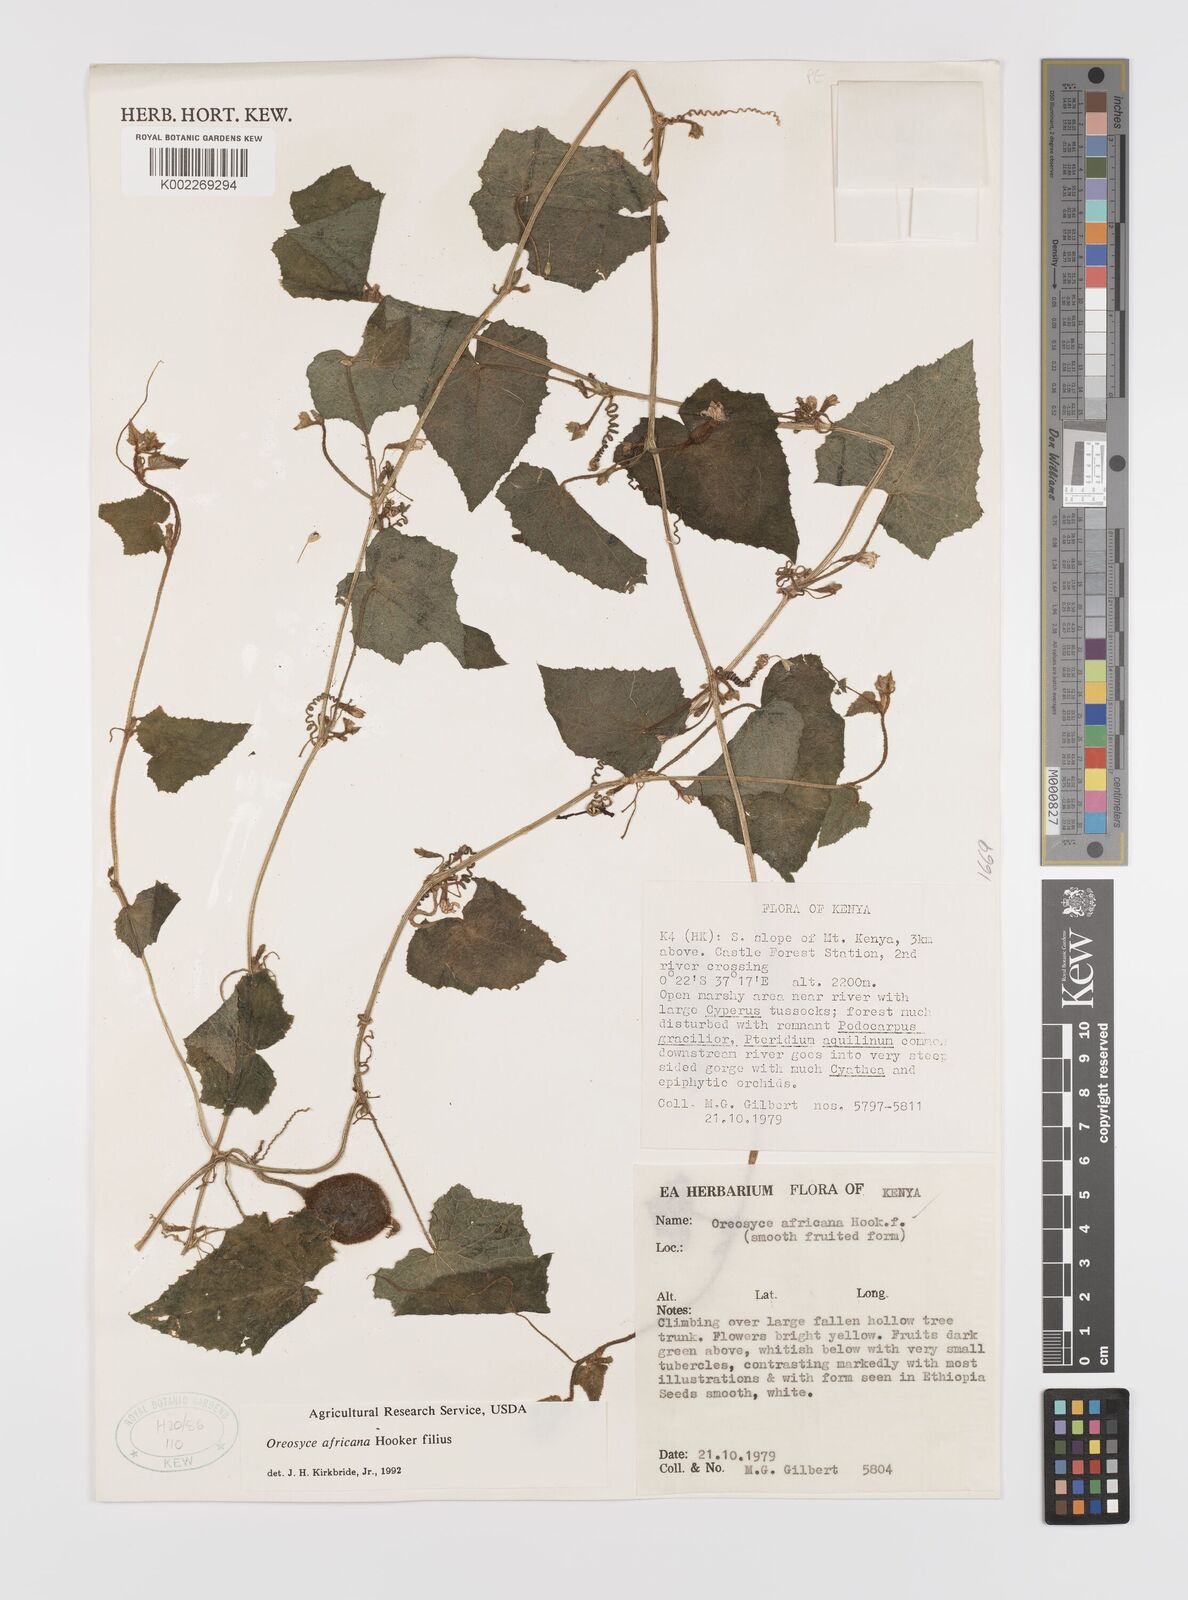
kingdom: Plantae
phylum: Tracheophyta
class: Magnoliopsida
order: Cucurbitales
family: Cucurbitaceae
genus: Cucumis
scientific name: Cucumis oreosyce
